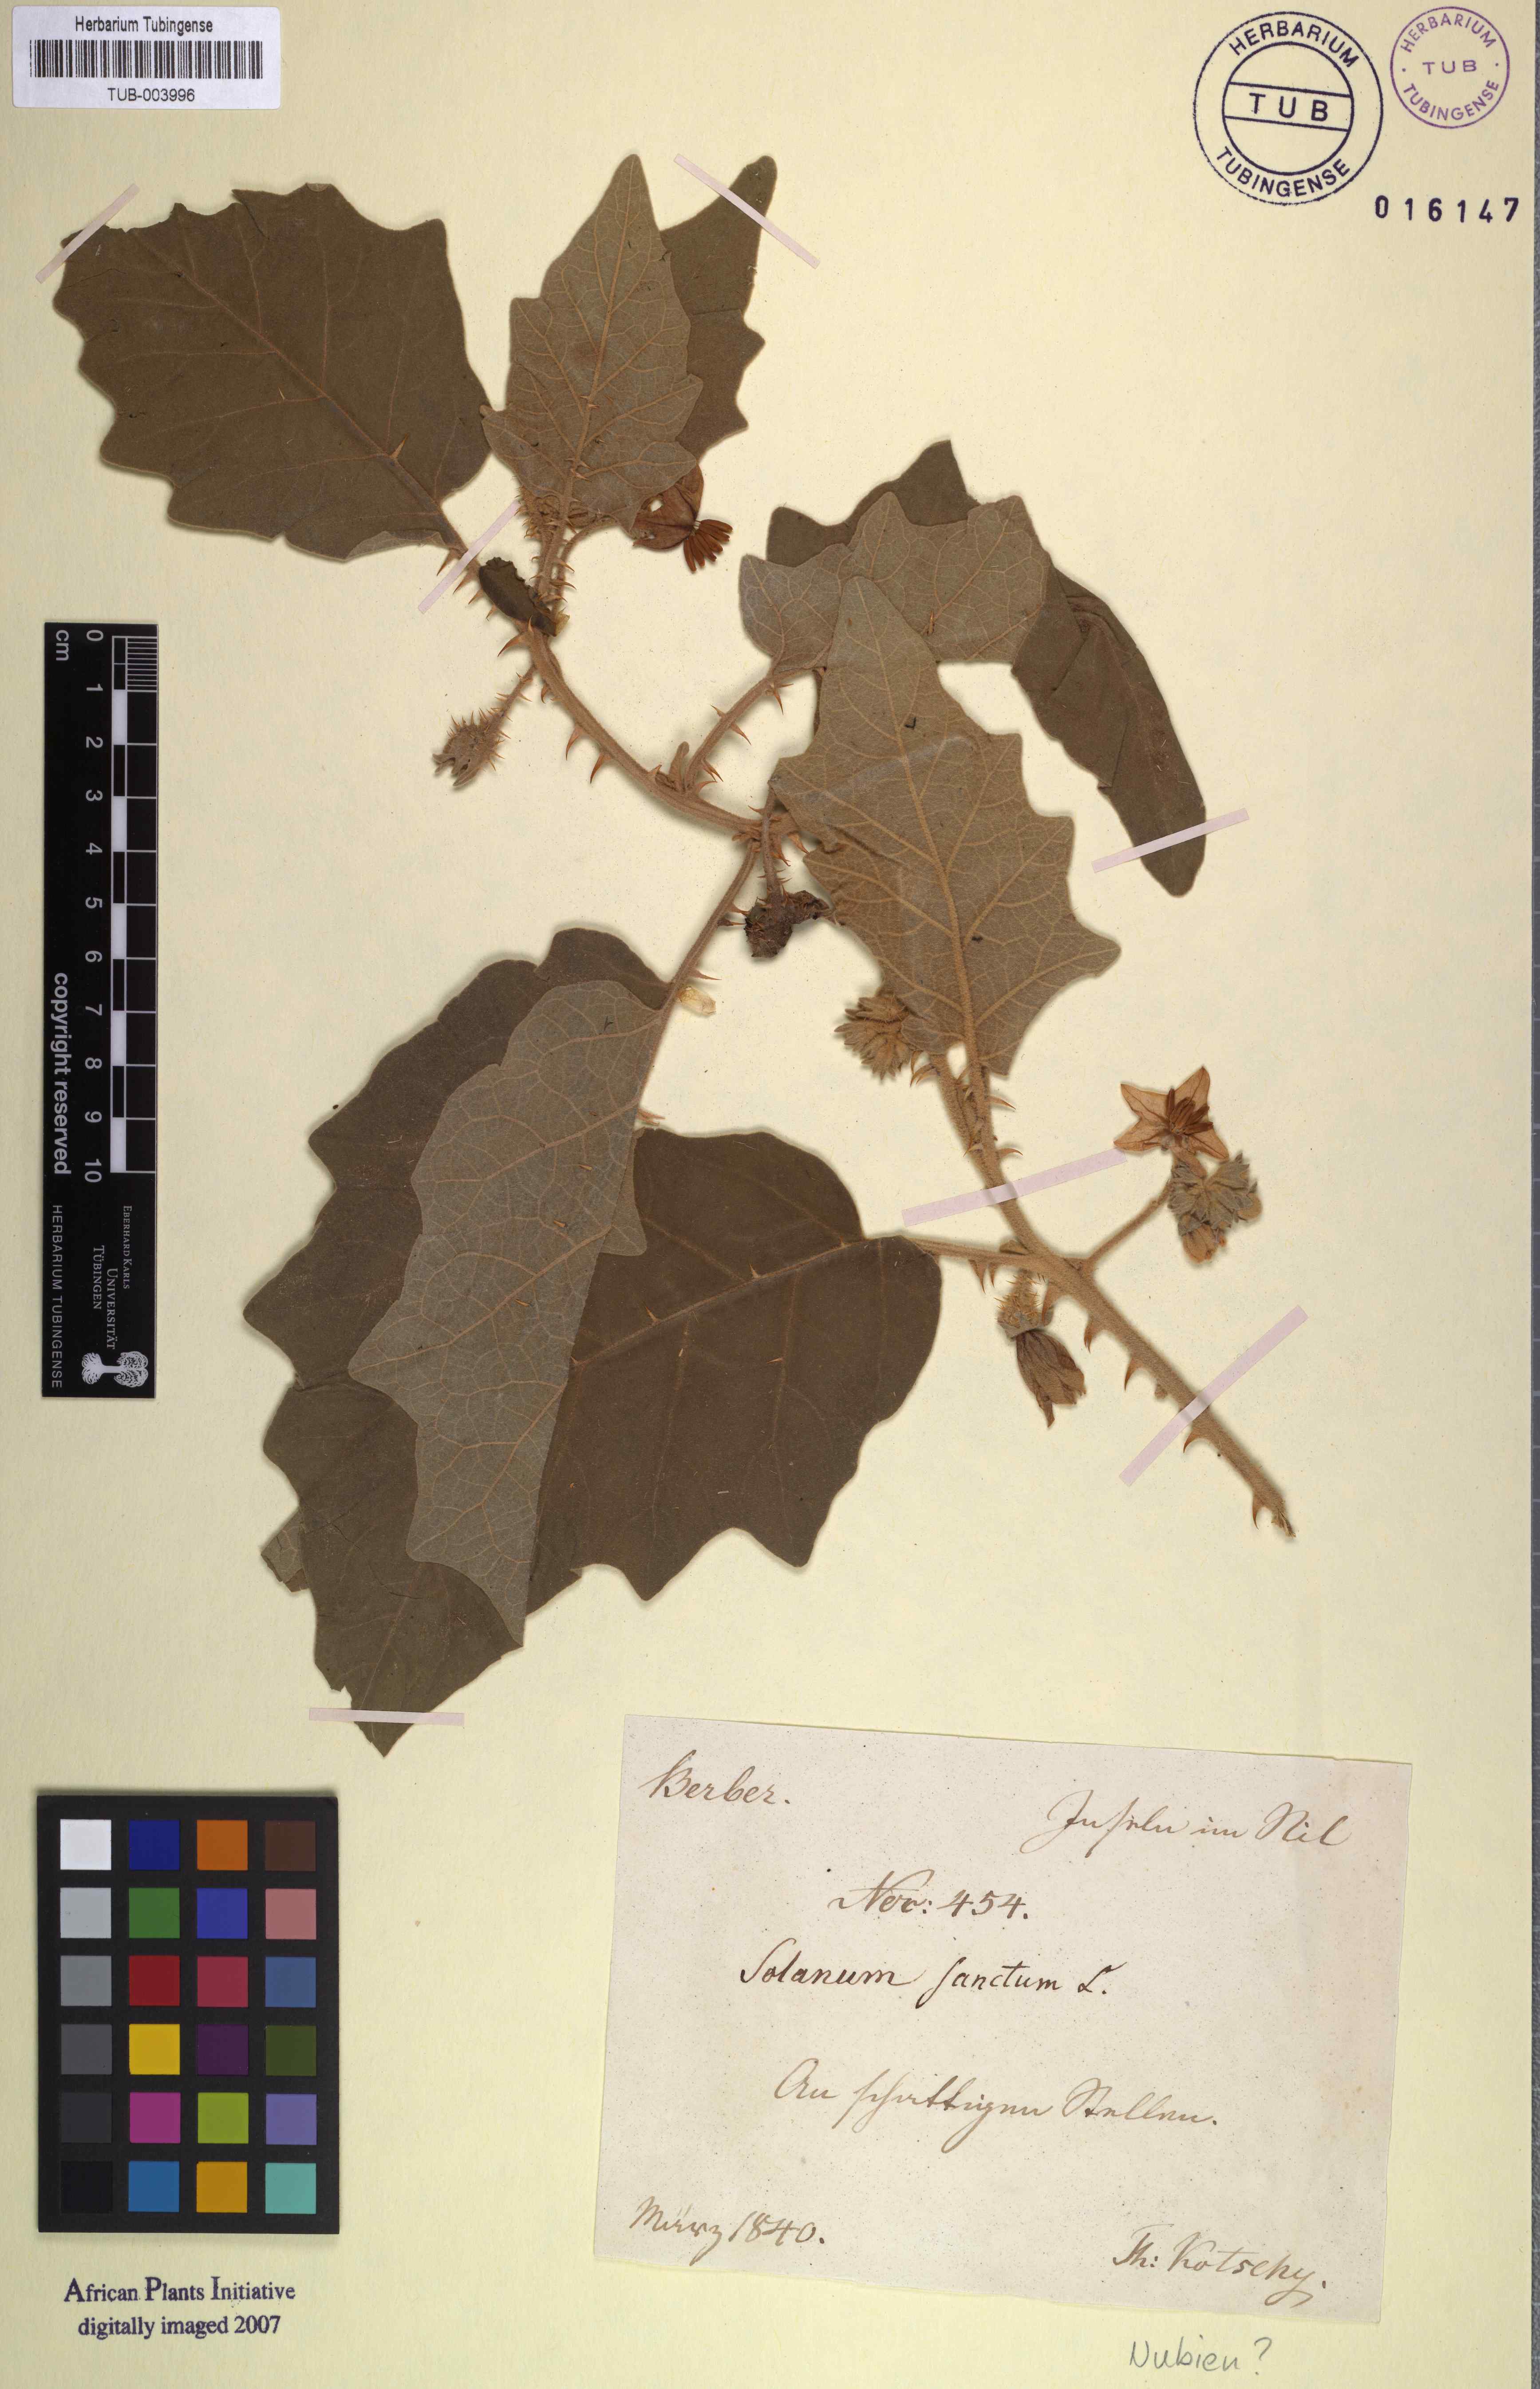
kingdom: Plantae
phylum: Tracheophyta
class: Magnoliopsida
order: Solanales
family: Solanaceae
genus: Solanum
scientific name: Solanum incanum
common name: Bitter apple
